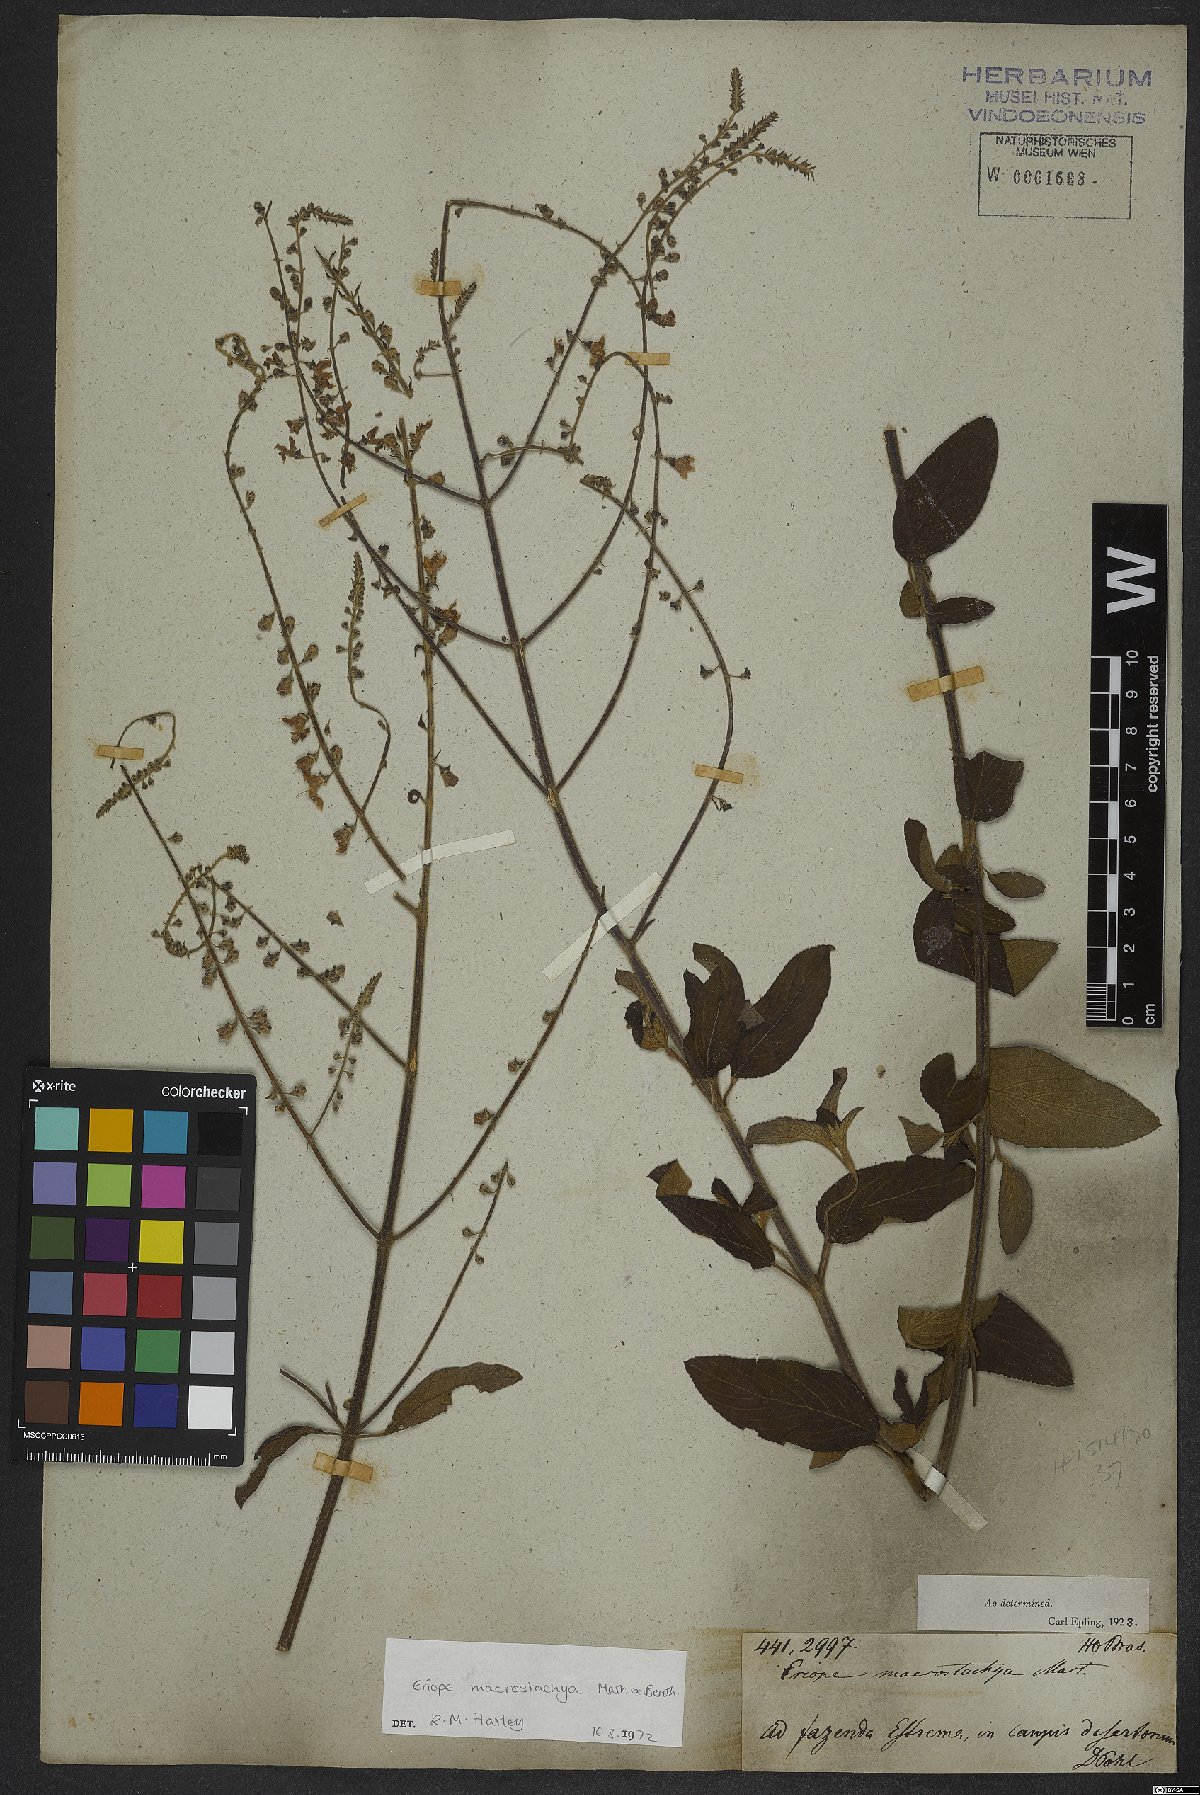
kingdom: Plantae
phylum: Tracheophyta
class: Magnoliopsida
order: Lamiales
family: Lamiaceae
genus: Eriope
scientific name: Eriope macrostachya
